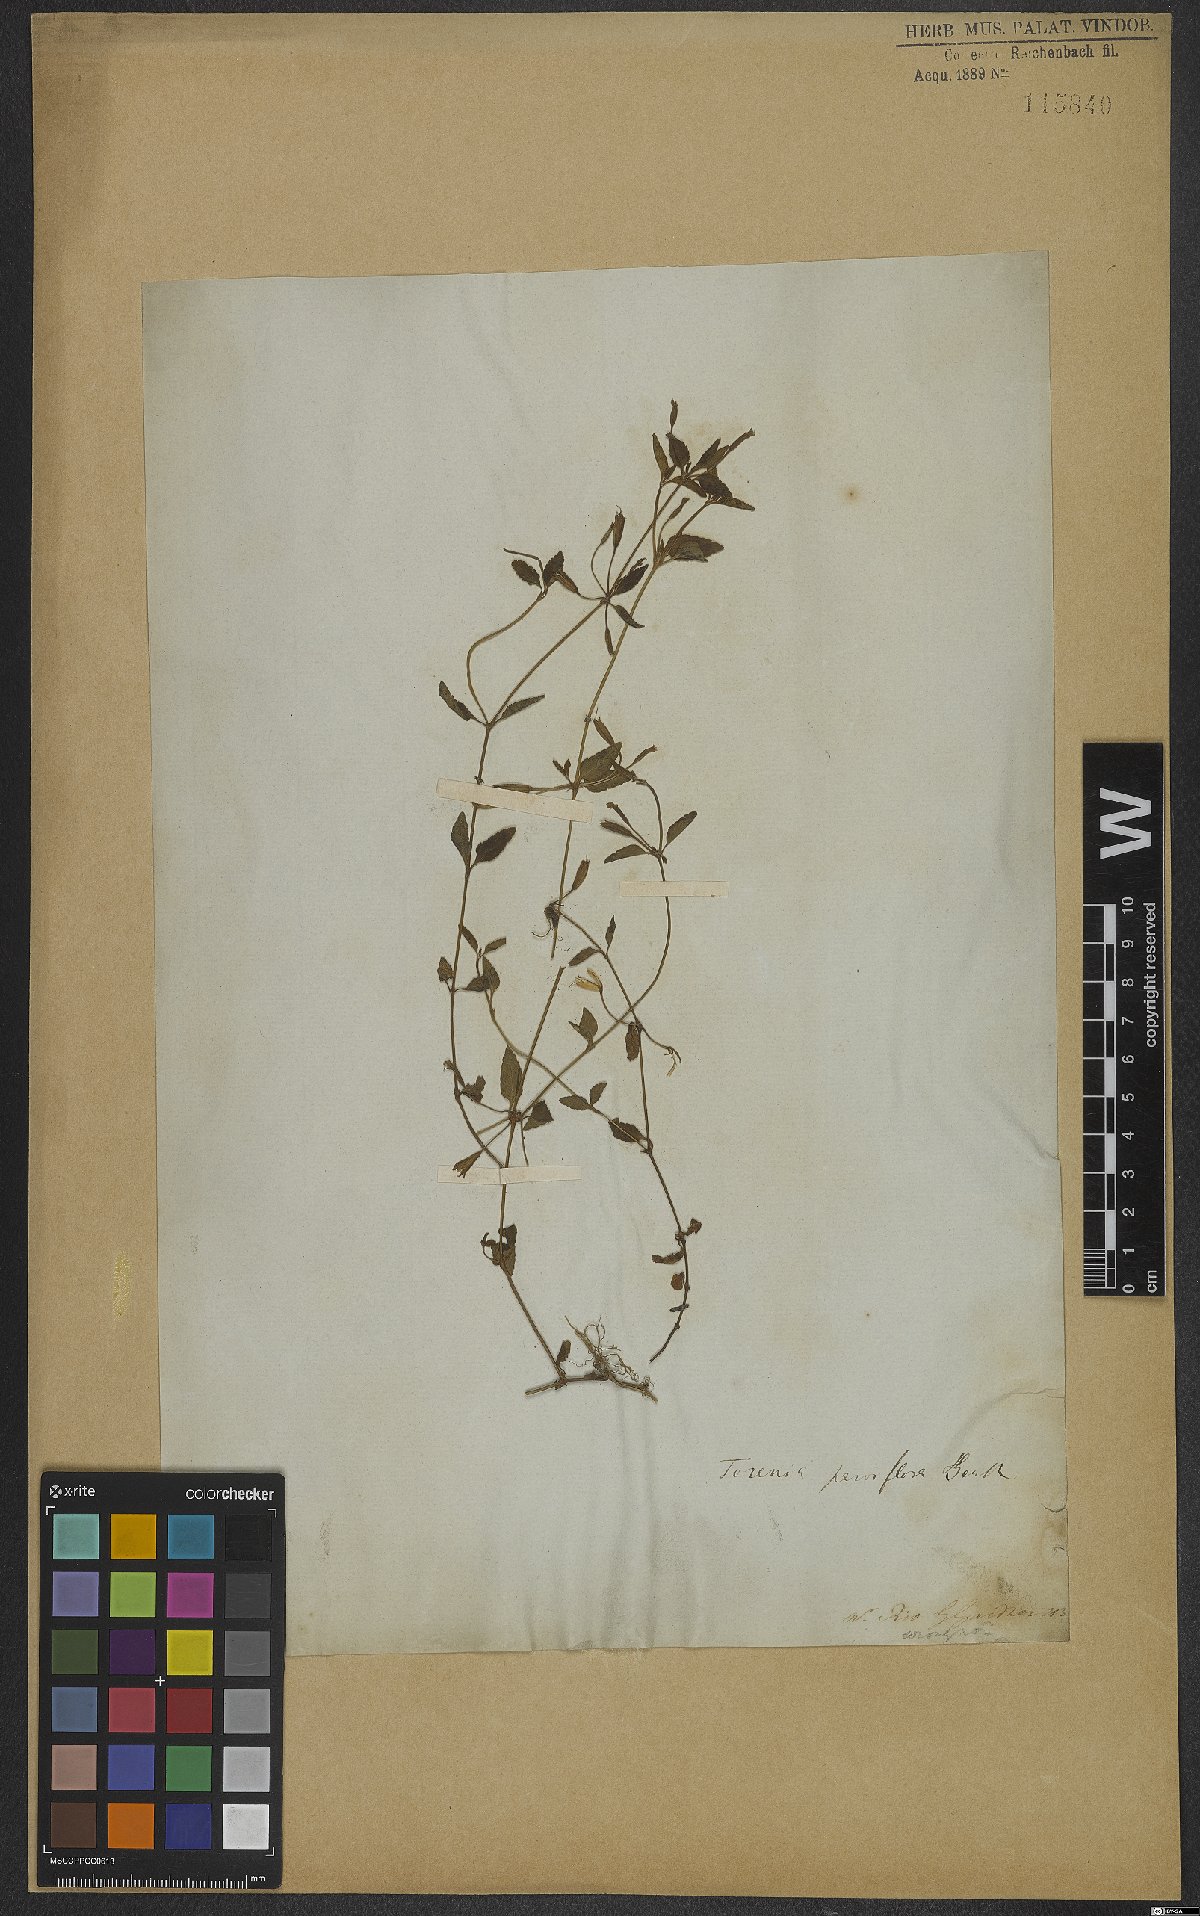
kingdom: Plantae
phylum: Tracheophyta
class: Magnoliopsida
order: Lamiales
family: Linderniaceae
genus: Torenia
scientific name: Torenia thouarsii
